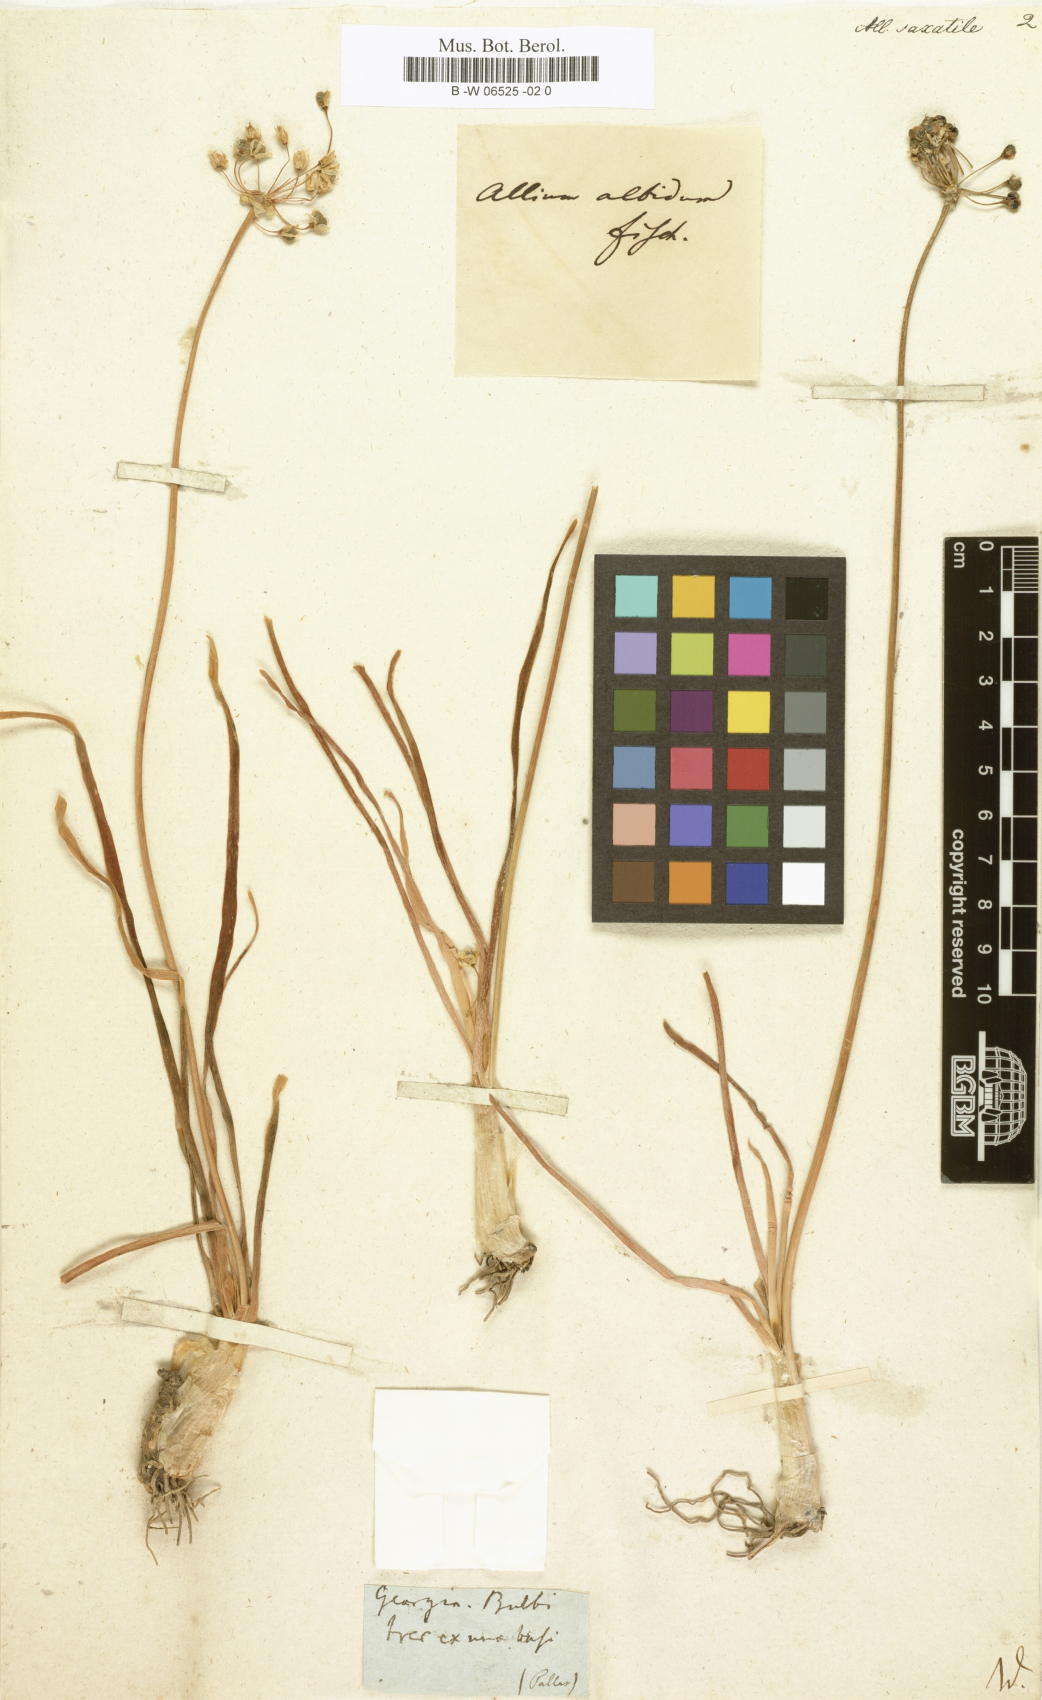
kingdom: Plantae
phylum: Tracheophyta
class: Liliopsida
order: Asparagales
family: Amaryllidaceae
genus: Allium
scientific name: Allium saxatile
